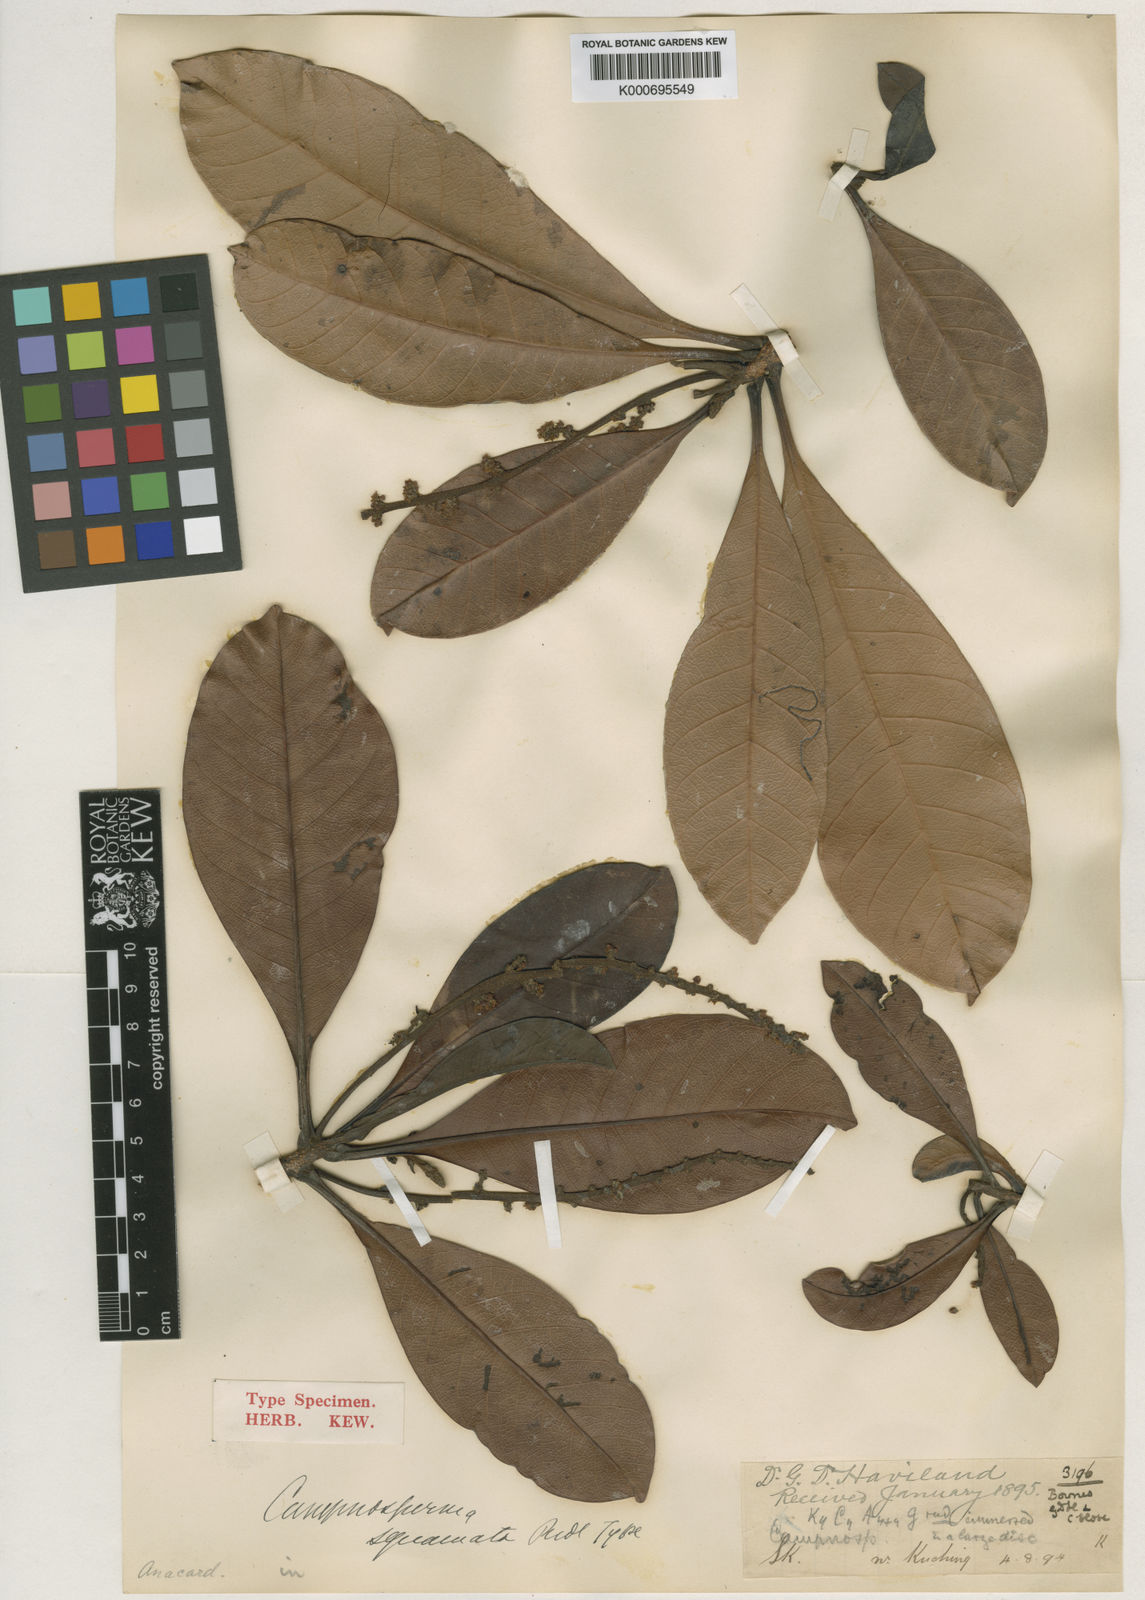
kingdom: Plantae
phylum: Tracheophyta
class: Magnoliopsida
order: Sapindales
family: Anacardiaceae
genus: Campnosperma
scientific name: Campnosperma squamatum
